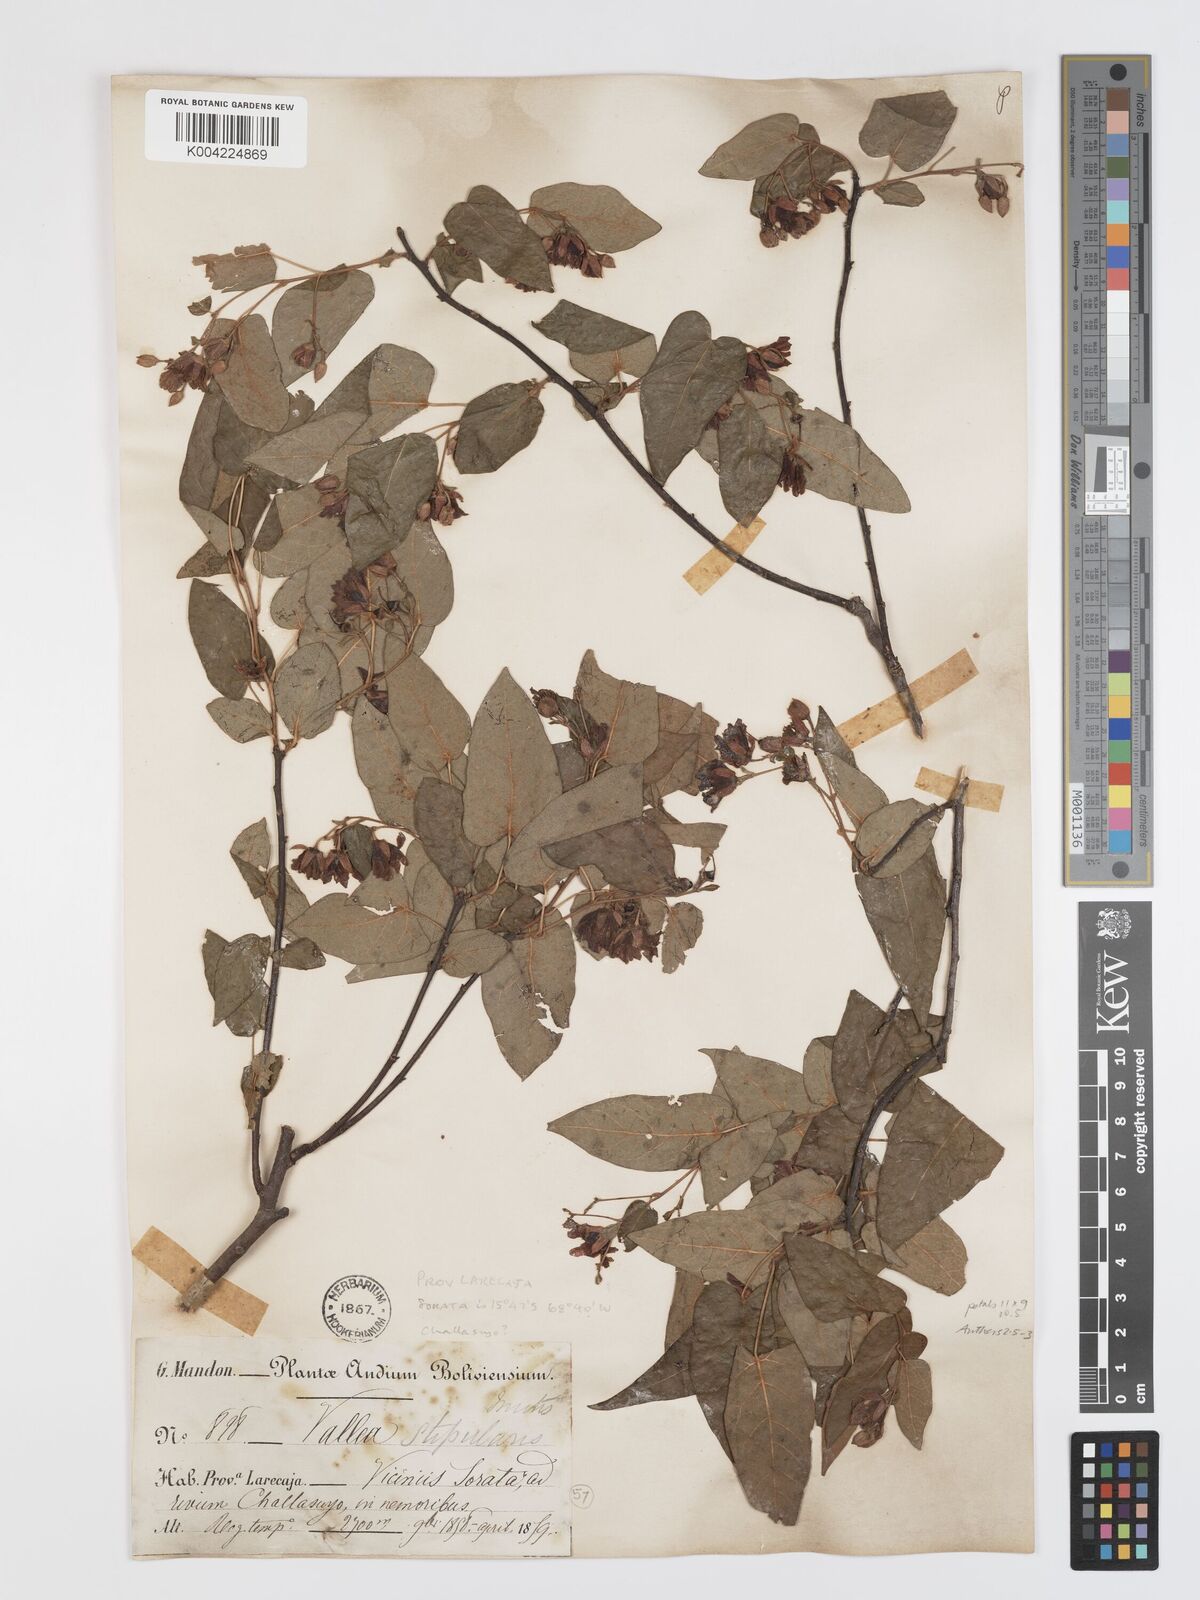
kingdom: Plantae
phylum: Tracheophyta
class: Magnoliopsida
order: Oxalidales
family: Elaeocarpaceae
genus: Vallea
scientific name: Vallea stipularis
